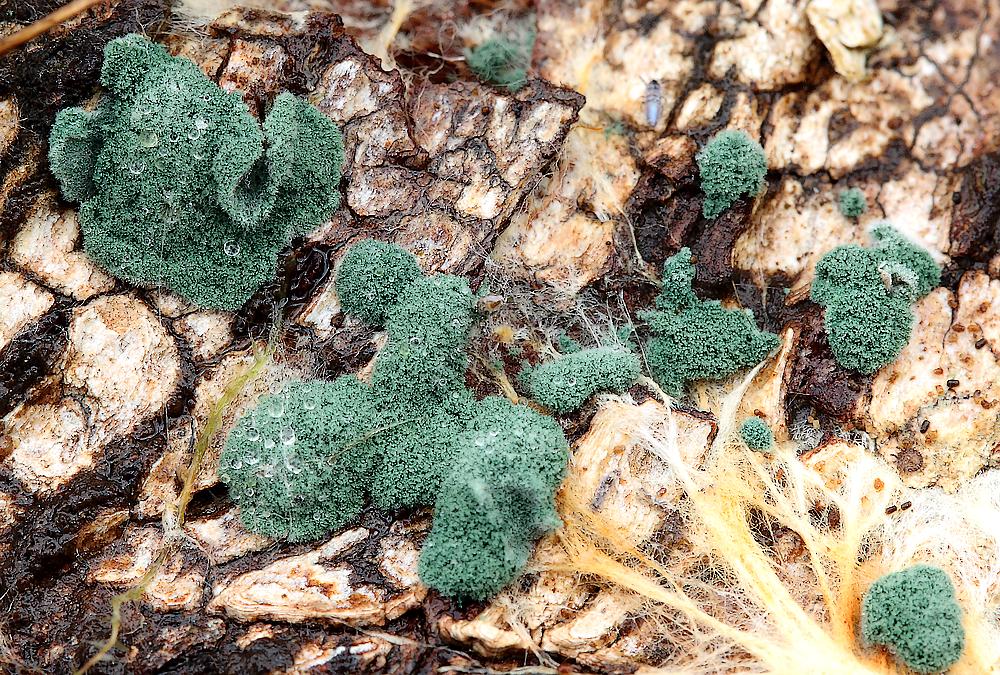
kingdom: Fungi
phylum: Ascomycota
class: Sordariomycetes
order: Hypocreales
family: Hypocreaceae
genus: Trichoderma
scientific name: Trichoderma
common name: kødkerne
